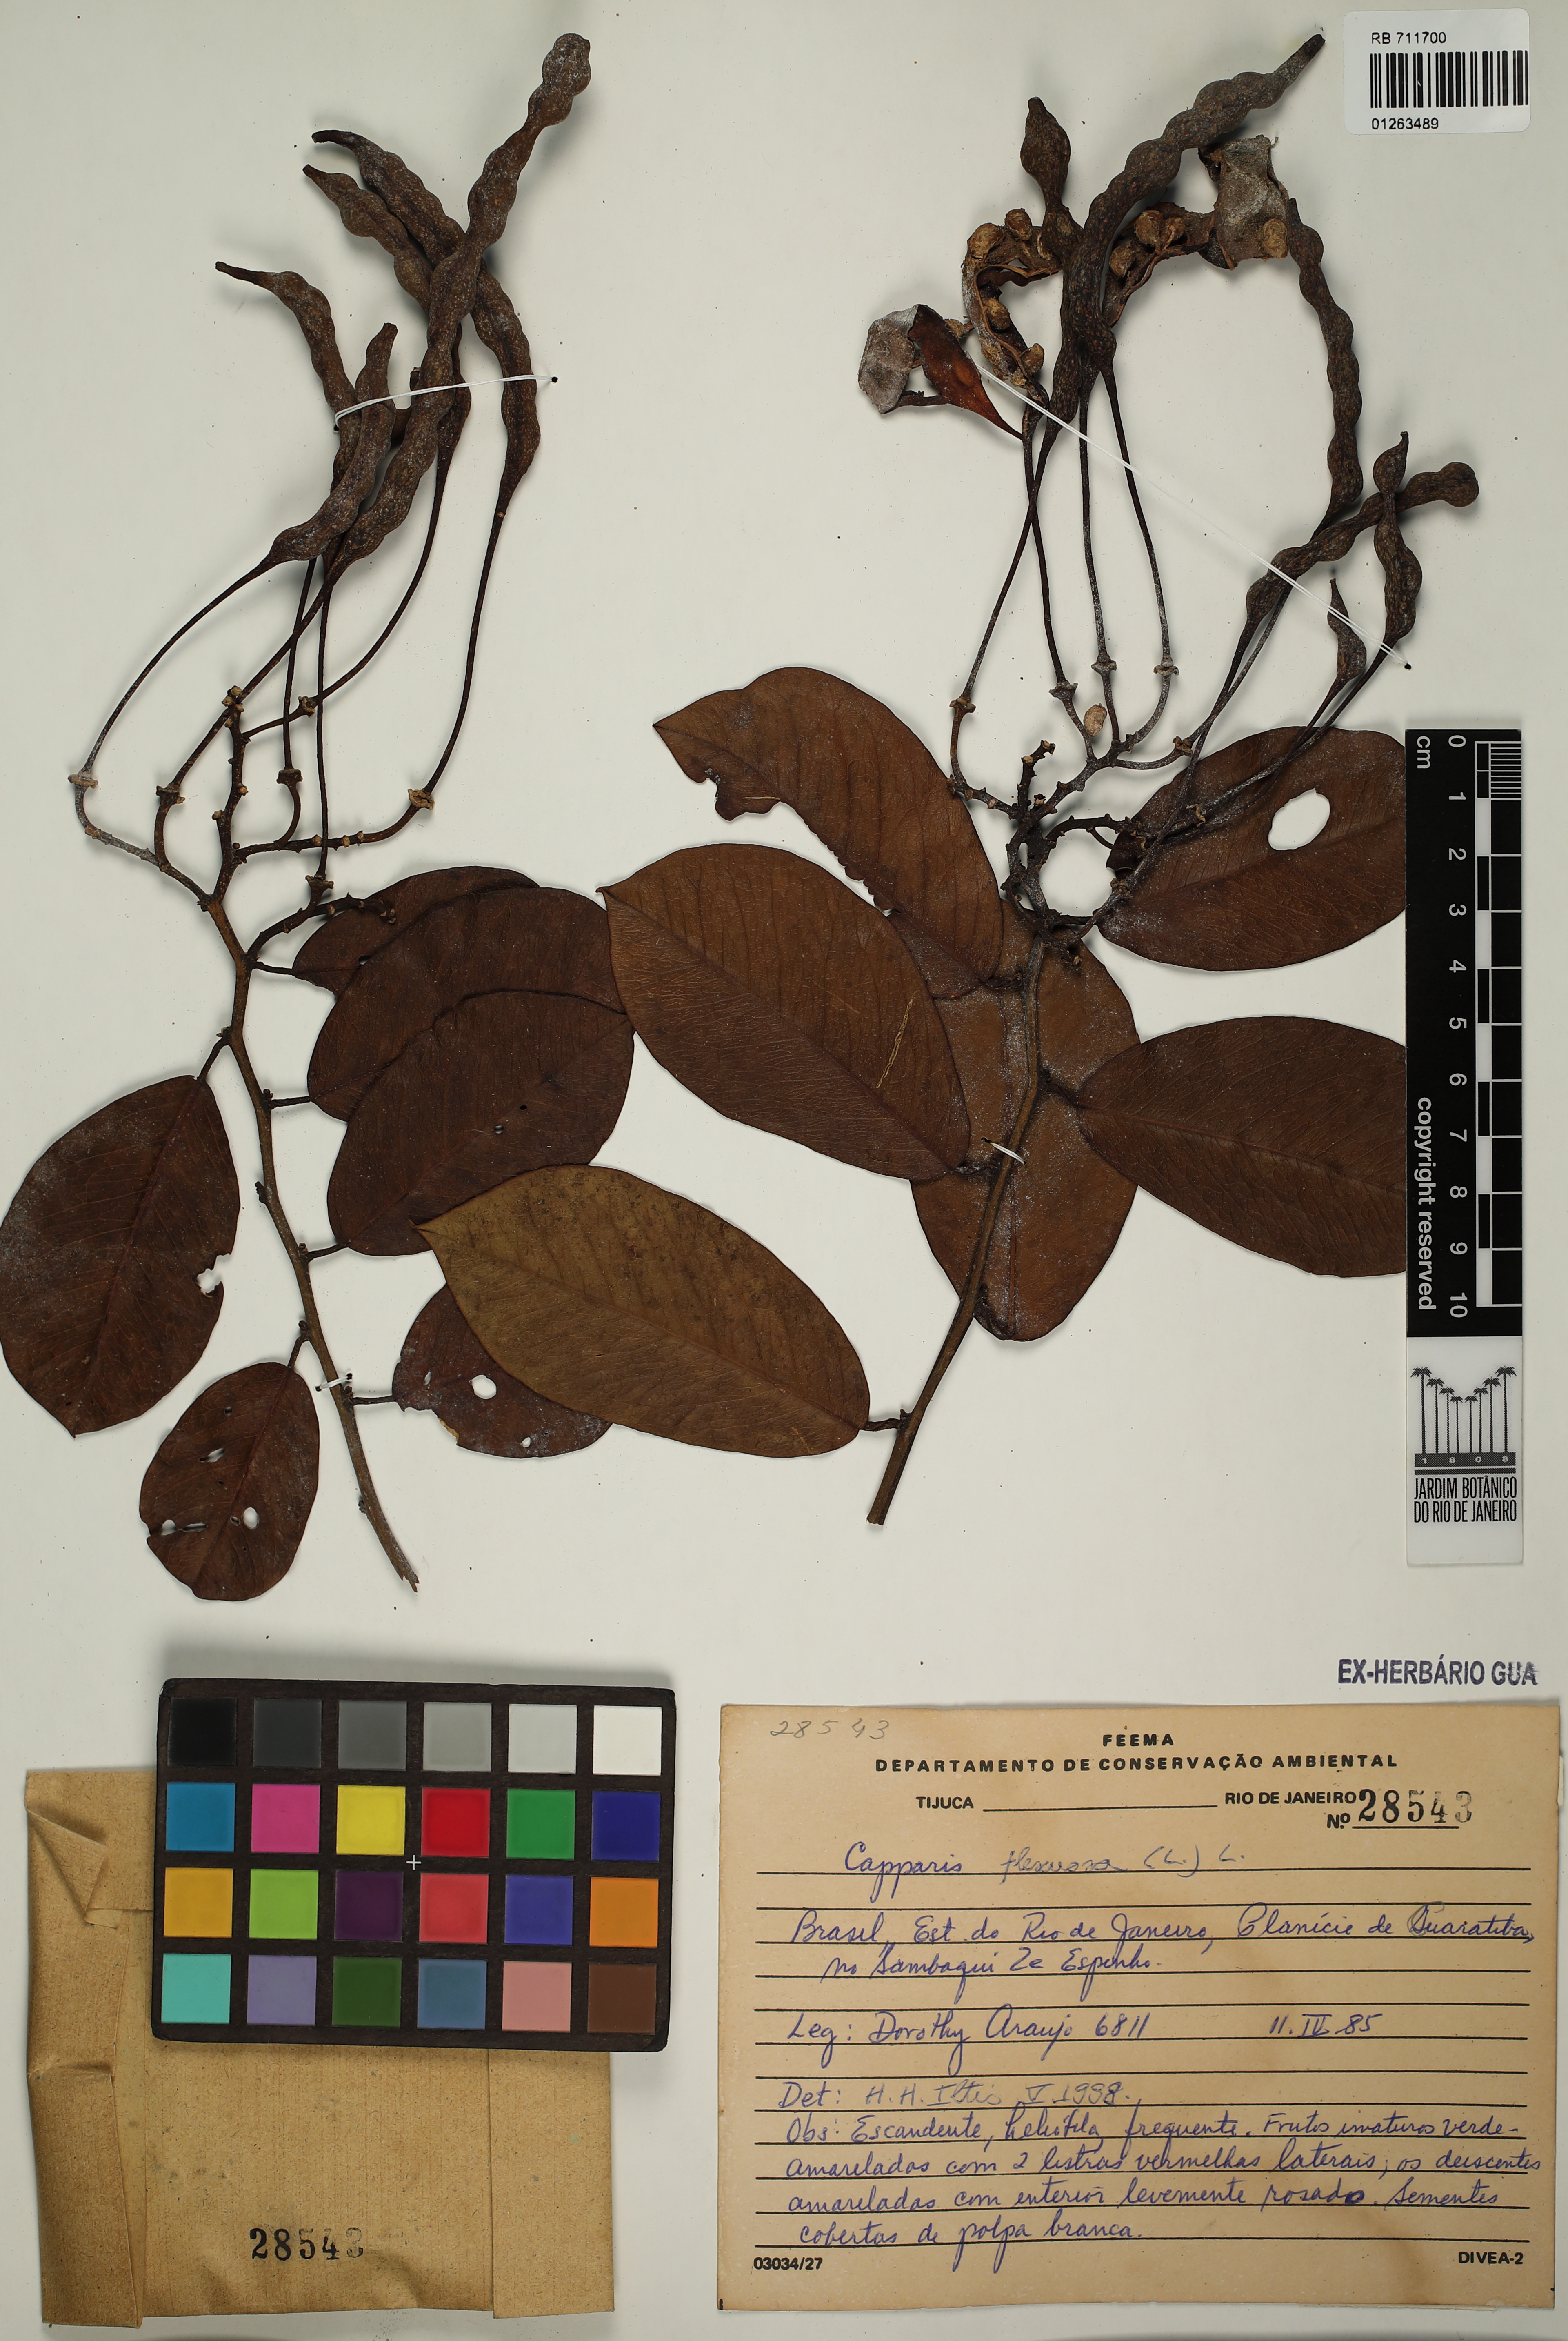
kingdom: Plantae
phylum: Tracheophyta
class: Magnoliopsida
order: Brassicales
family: Capparaceae
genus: Cynophalla
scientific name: Cynophalla flexuosa
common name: Capertree
